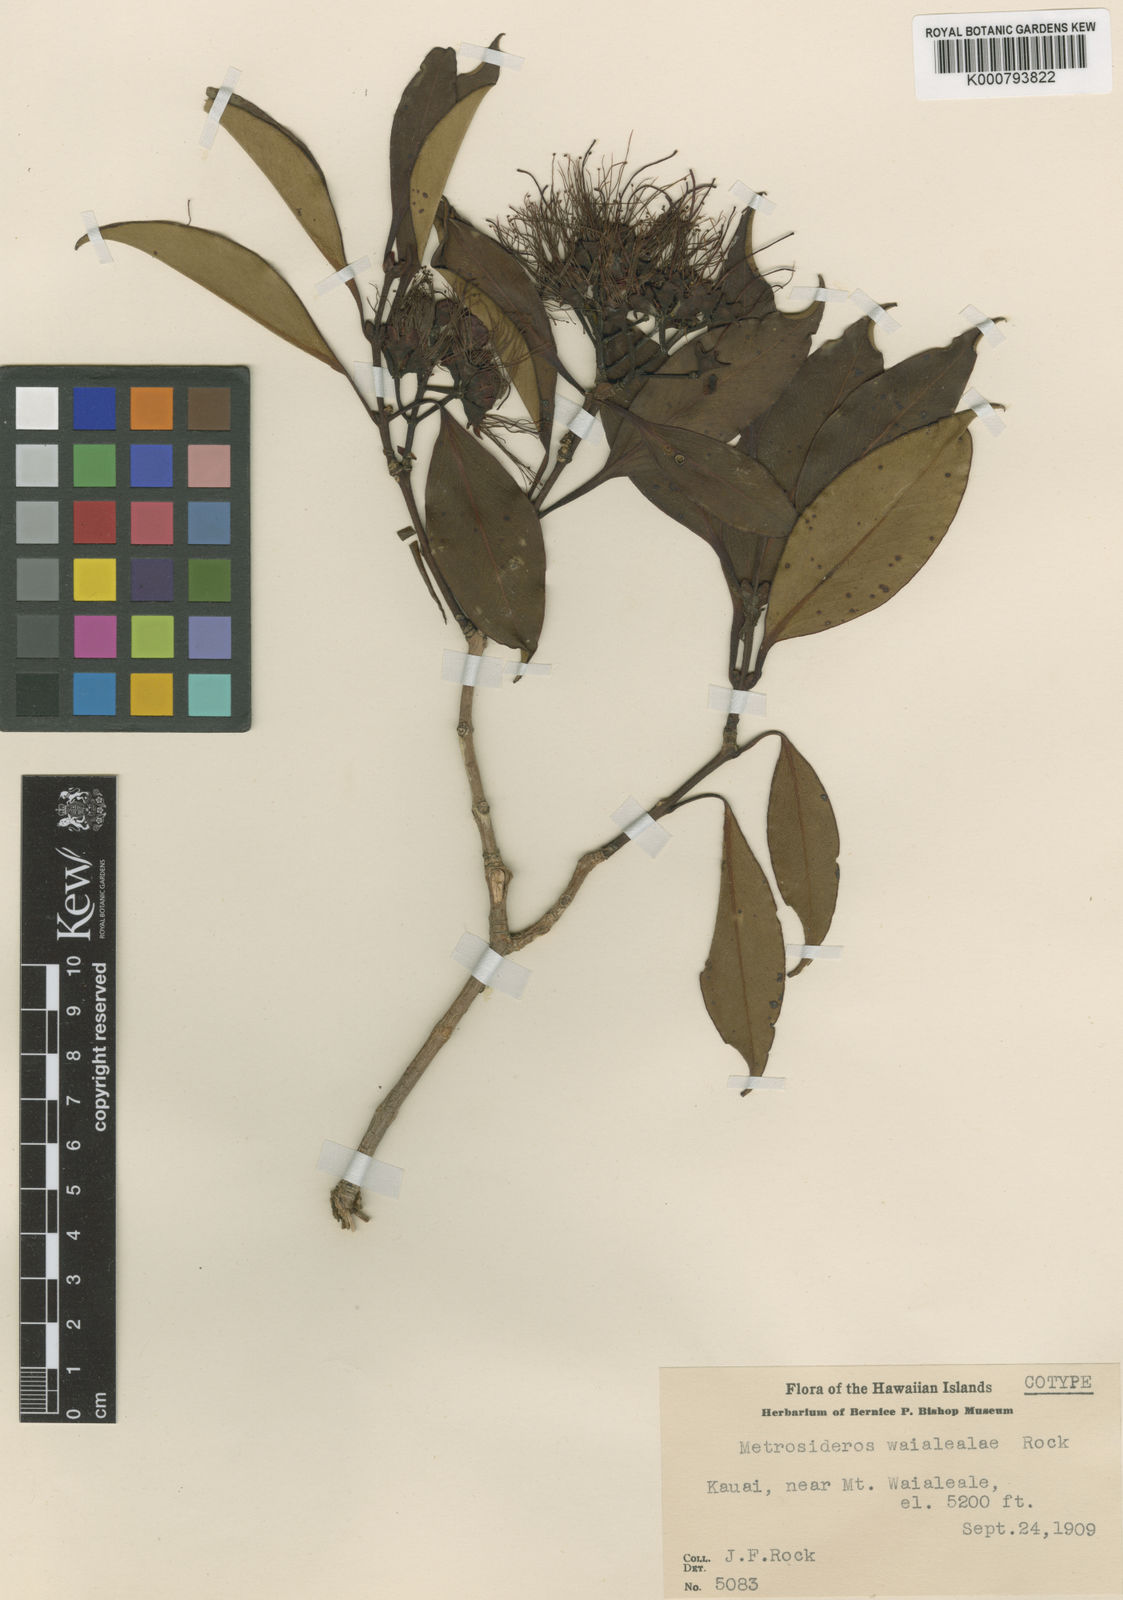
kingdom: Plantae
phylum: Tracheophyta
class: Magnoliopsida
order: Myrtales
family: Myrtaceae
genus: Metrosideros
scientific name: Metrosideros waialealae
